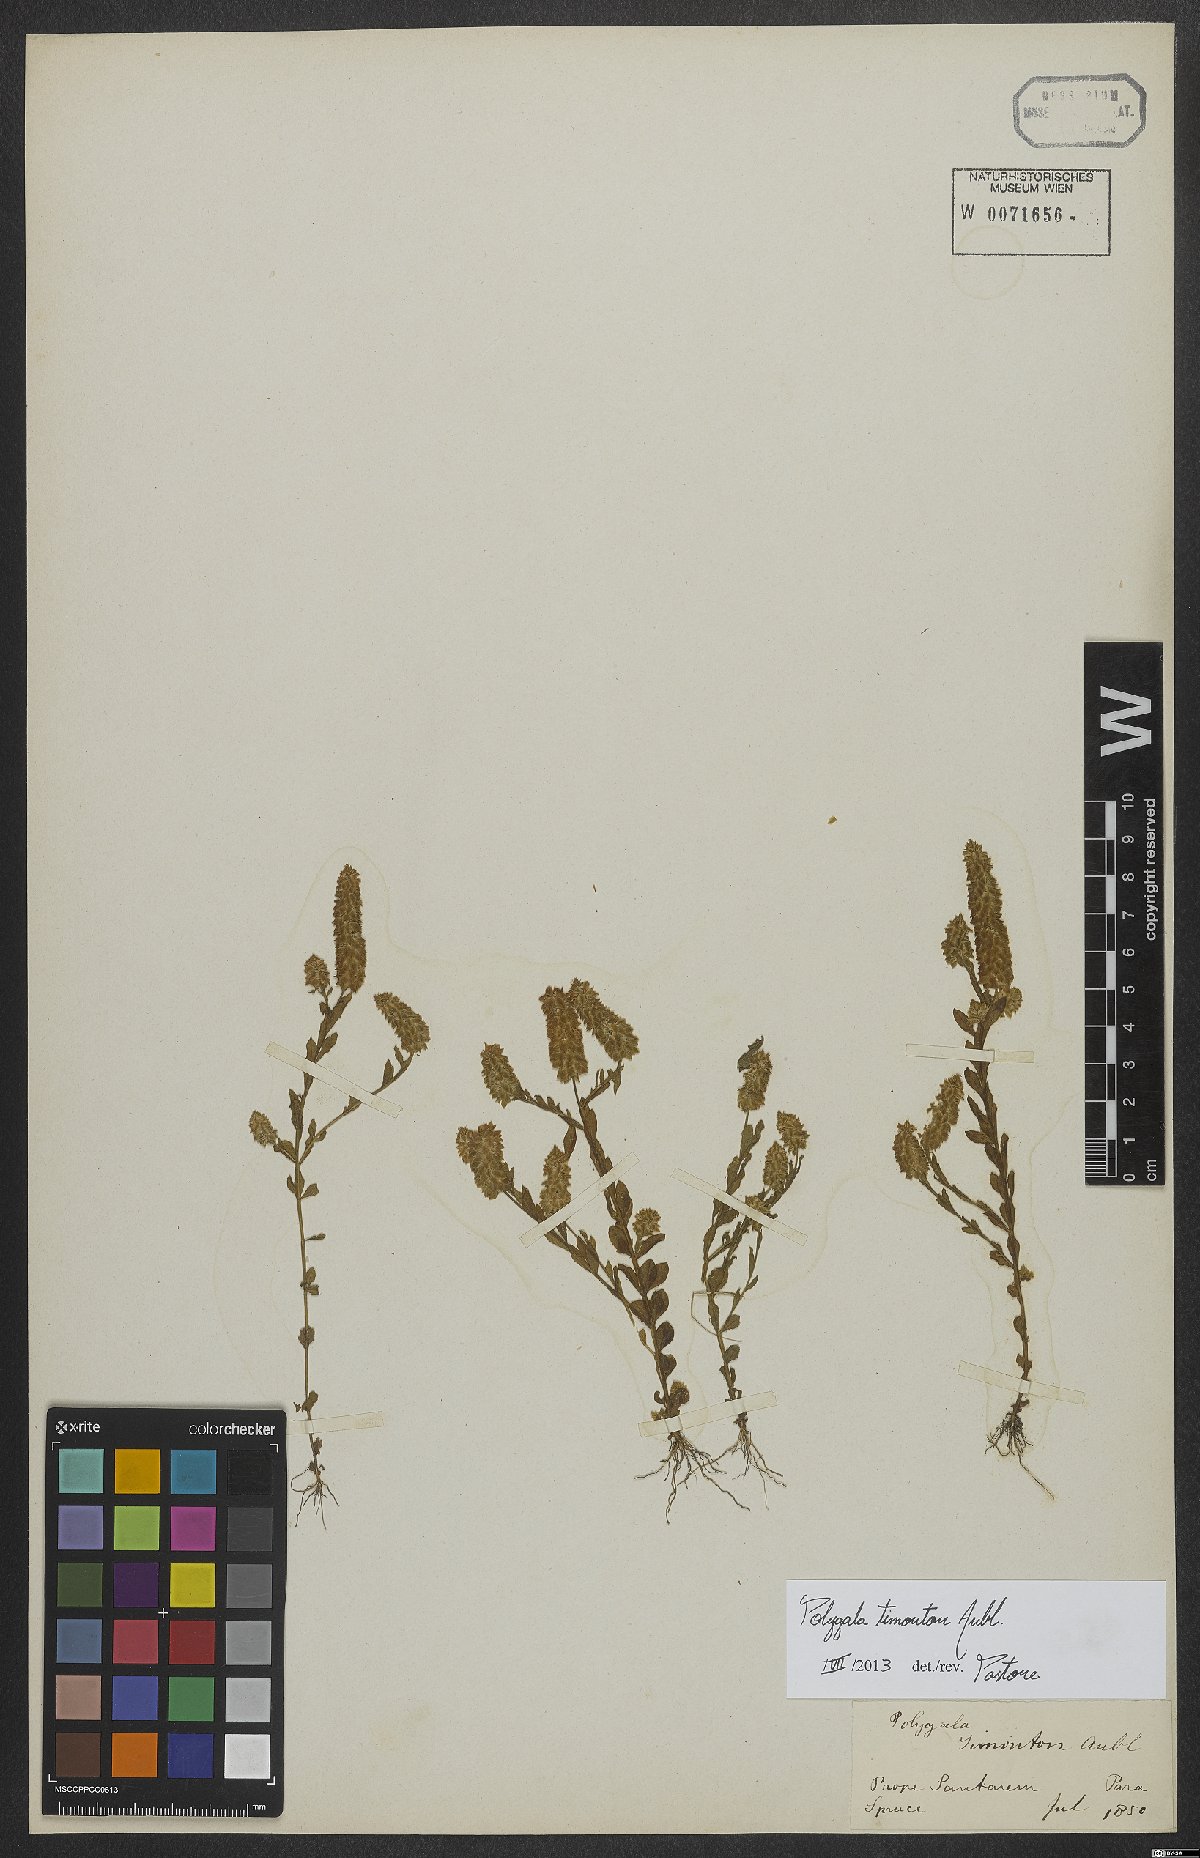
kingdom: Plantae
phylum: Tracheophyta
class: Magnoliopsida
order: Fabales
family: Polygalaceae
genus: Polygala
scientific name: Polygala timoutou
